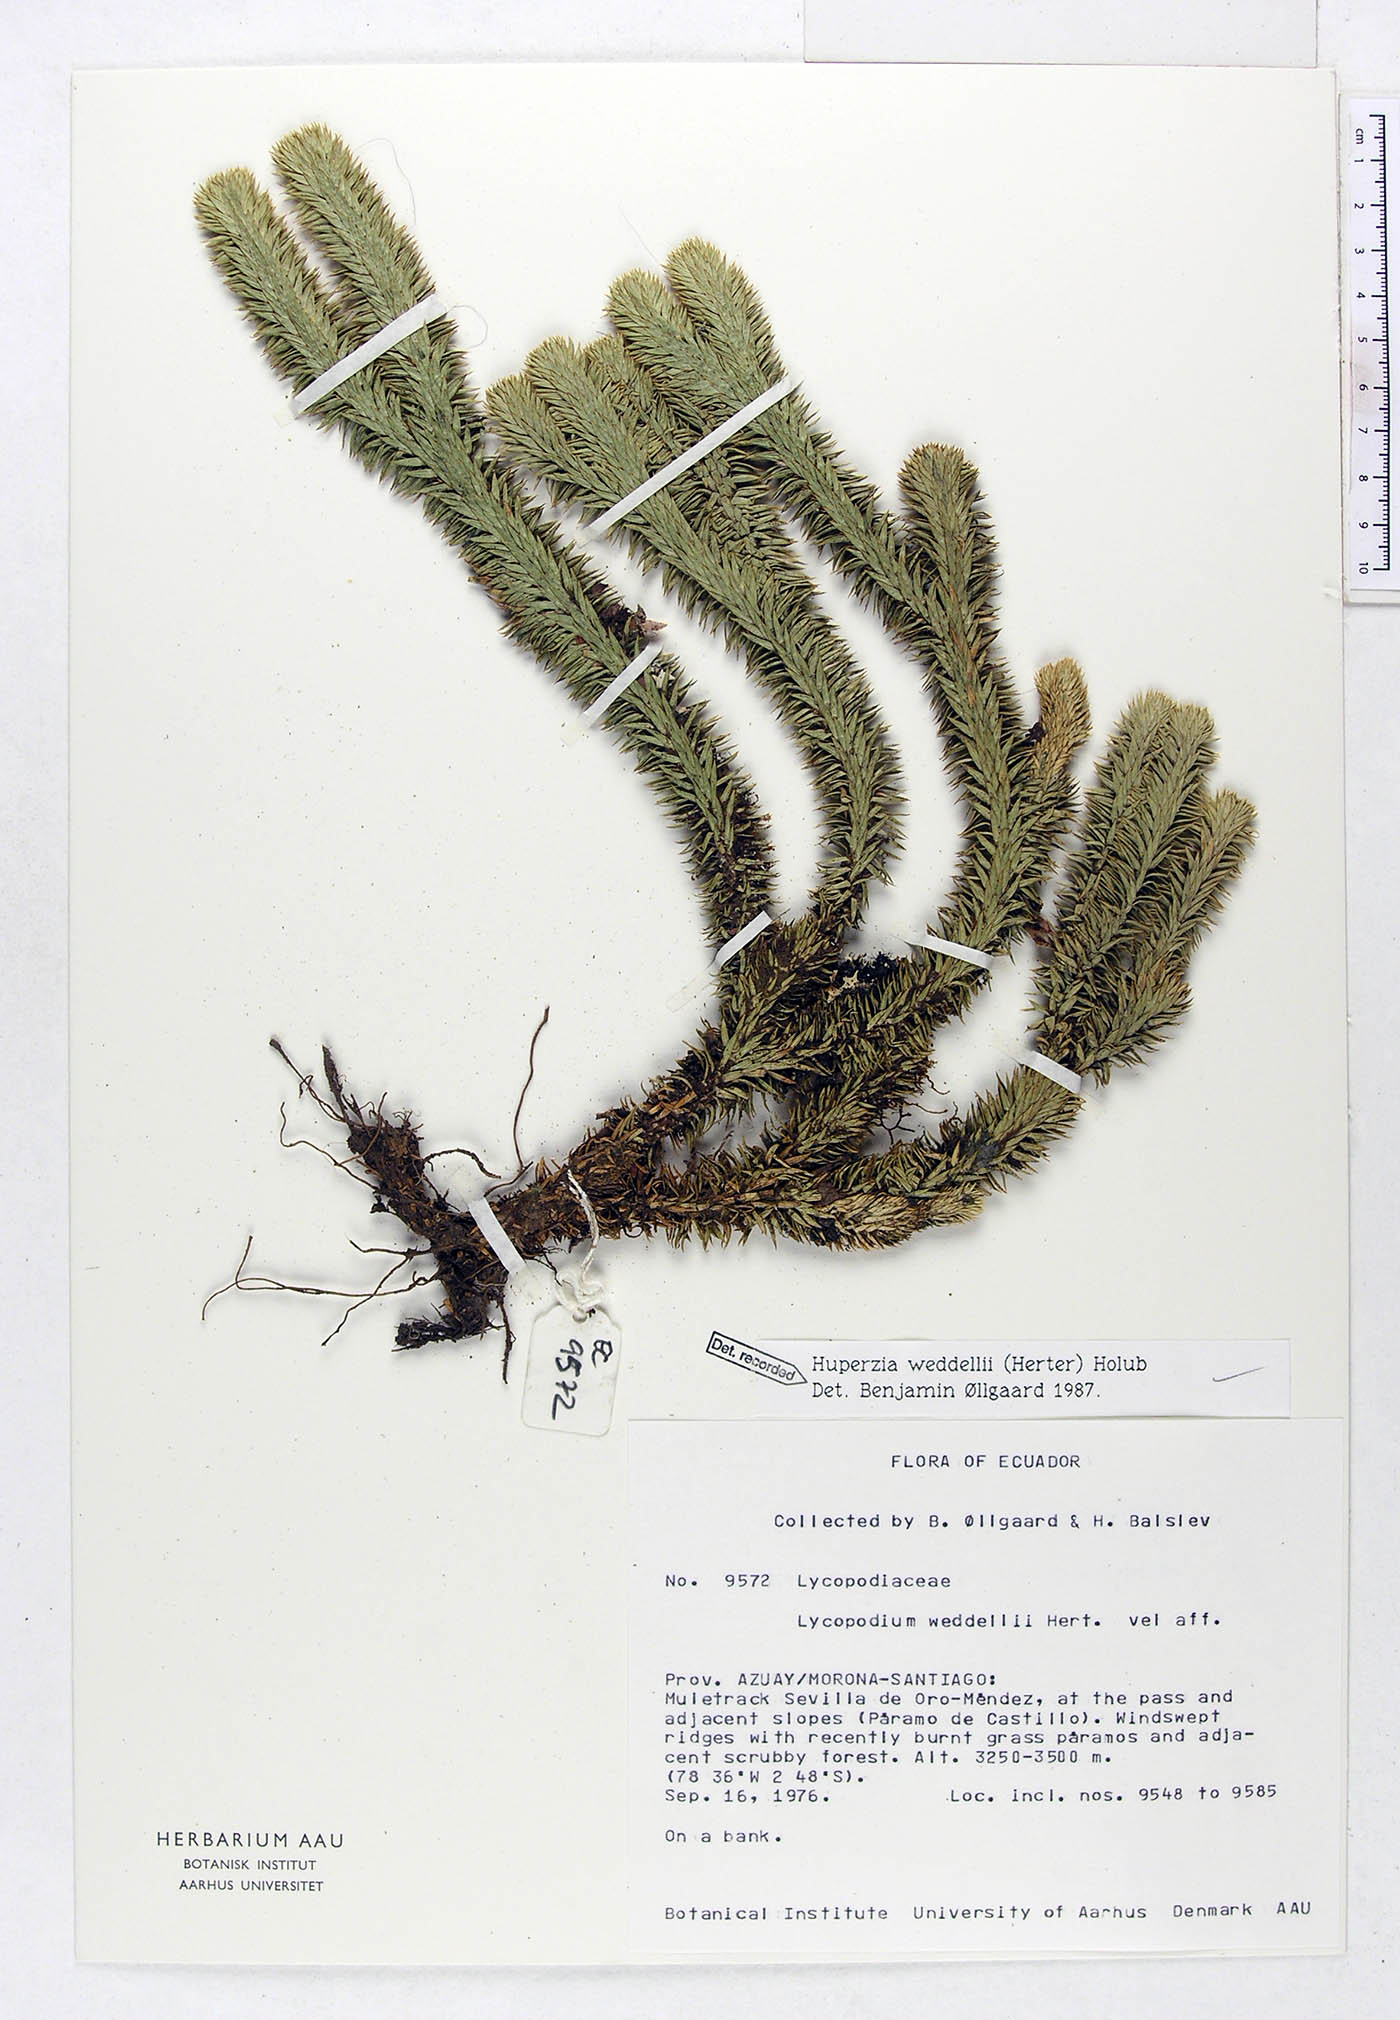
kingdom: Plantae
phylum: Tracheophyta
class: Lycopodiopsida
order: Lycopodiales
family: Lycopodiaceae
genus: Phlegmariurus
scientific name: Phlegmariurus weddellii
